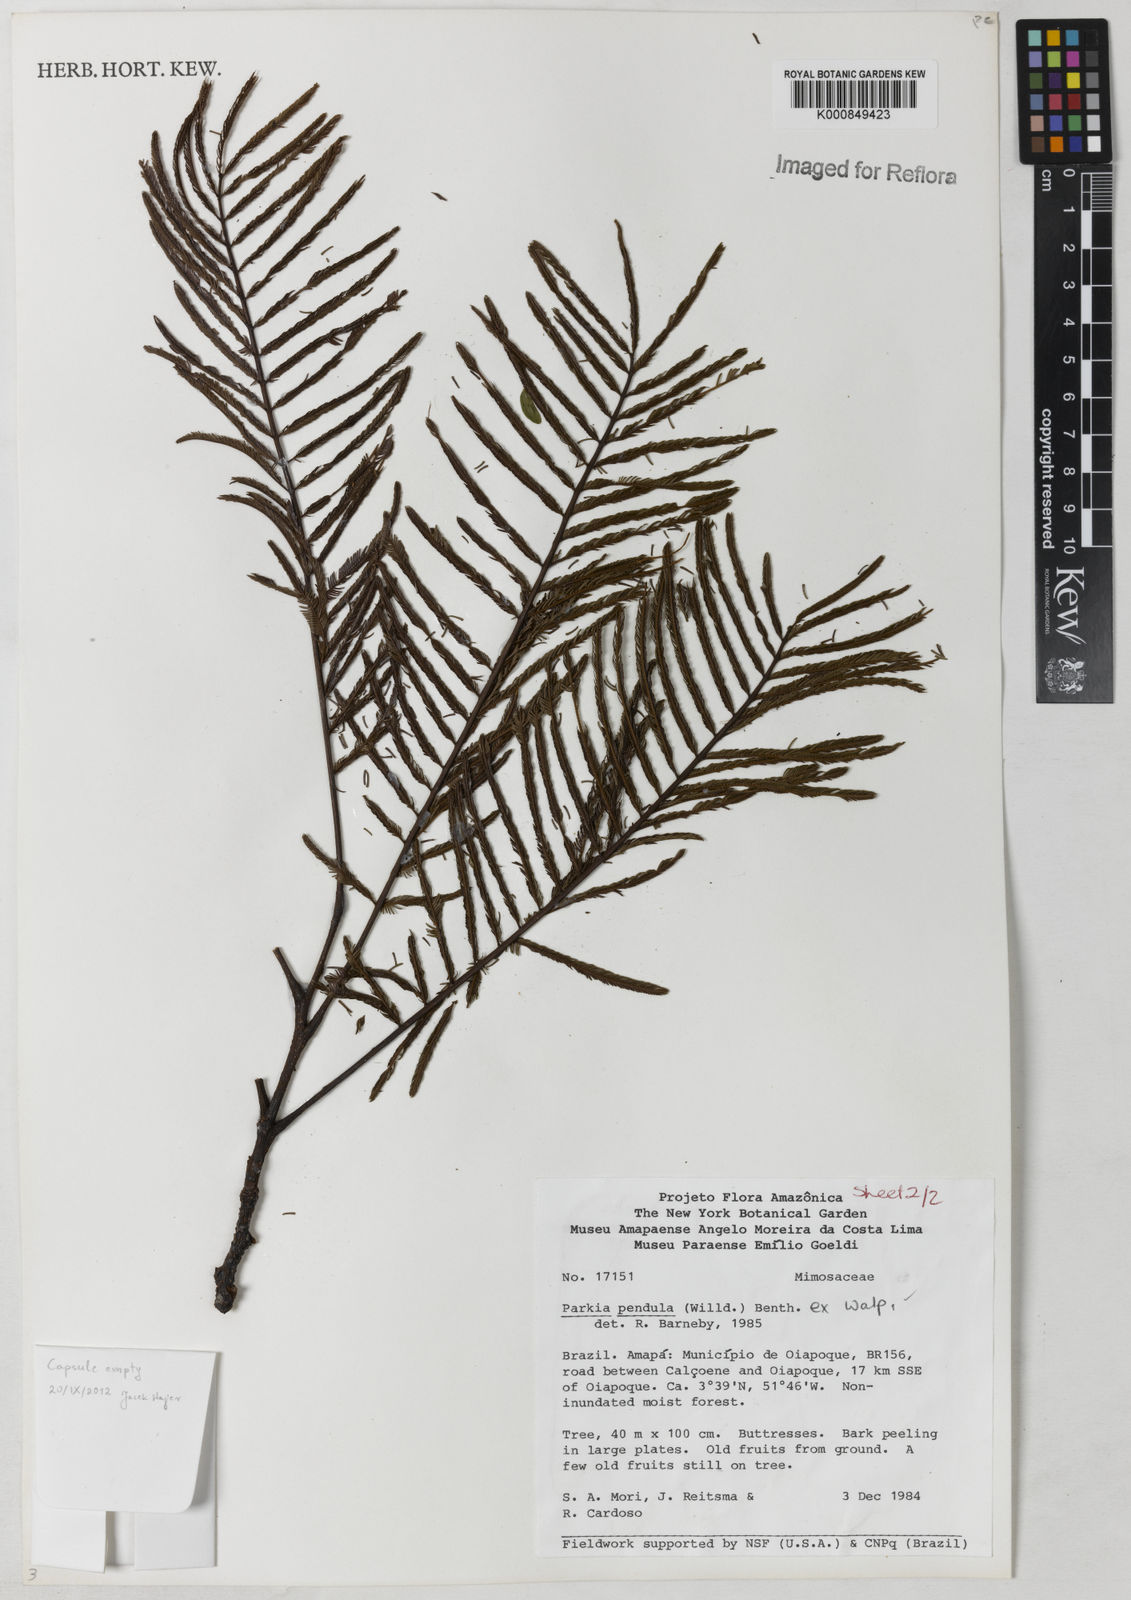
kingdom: Plantae
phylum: Tracheophyta
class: Magnoliopsida
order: Fabales
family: Fabaceae
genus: Parkia
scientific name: Parkia pendula
